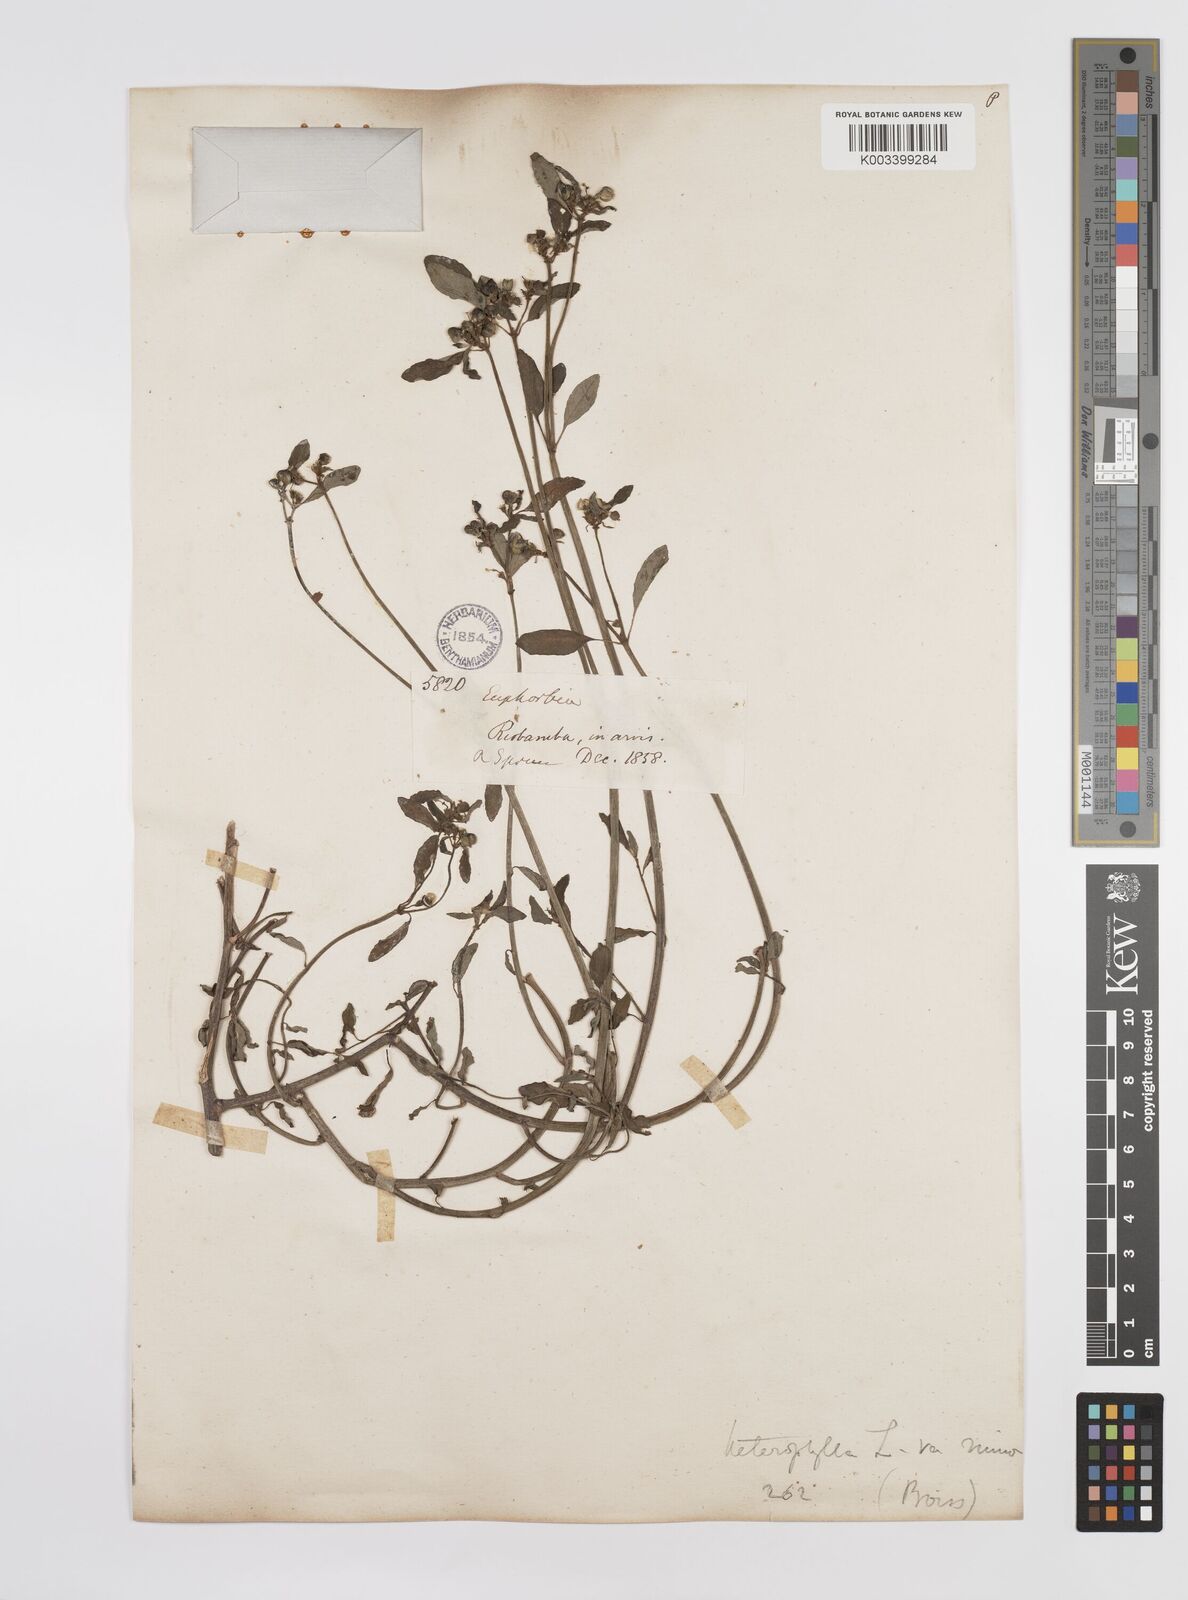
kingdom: Plantae
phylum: Tracheophyta
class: Magnoliopsida
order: Malpighiales
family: Euphorbiaceae
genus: Euphorbia
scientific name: Euphorbia heterophylla
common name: Mexican fireplant
